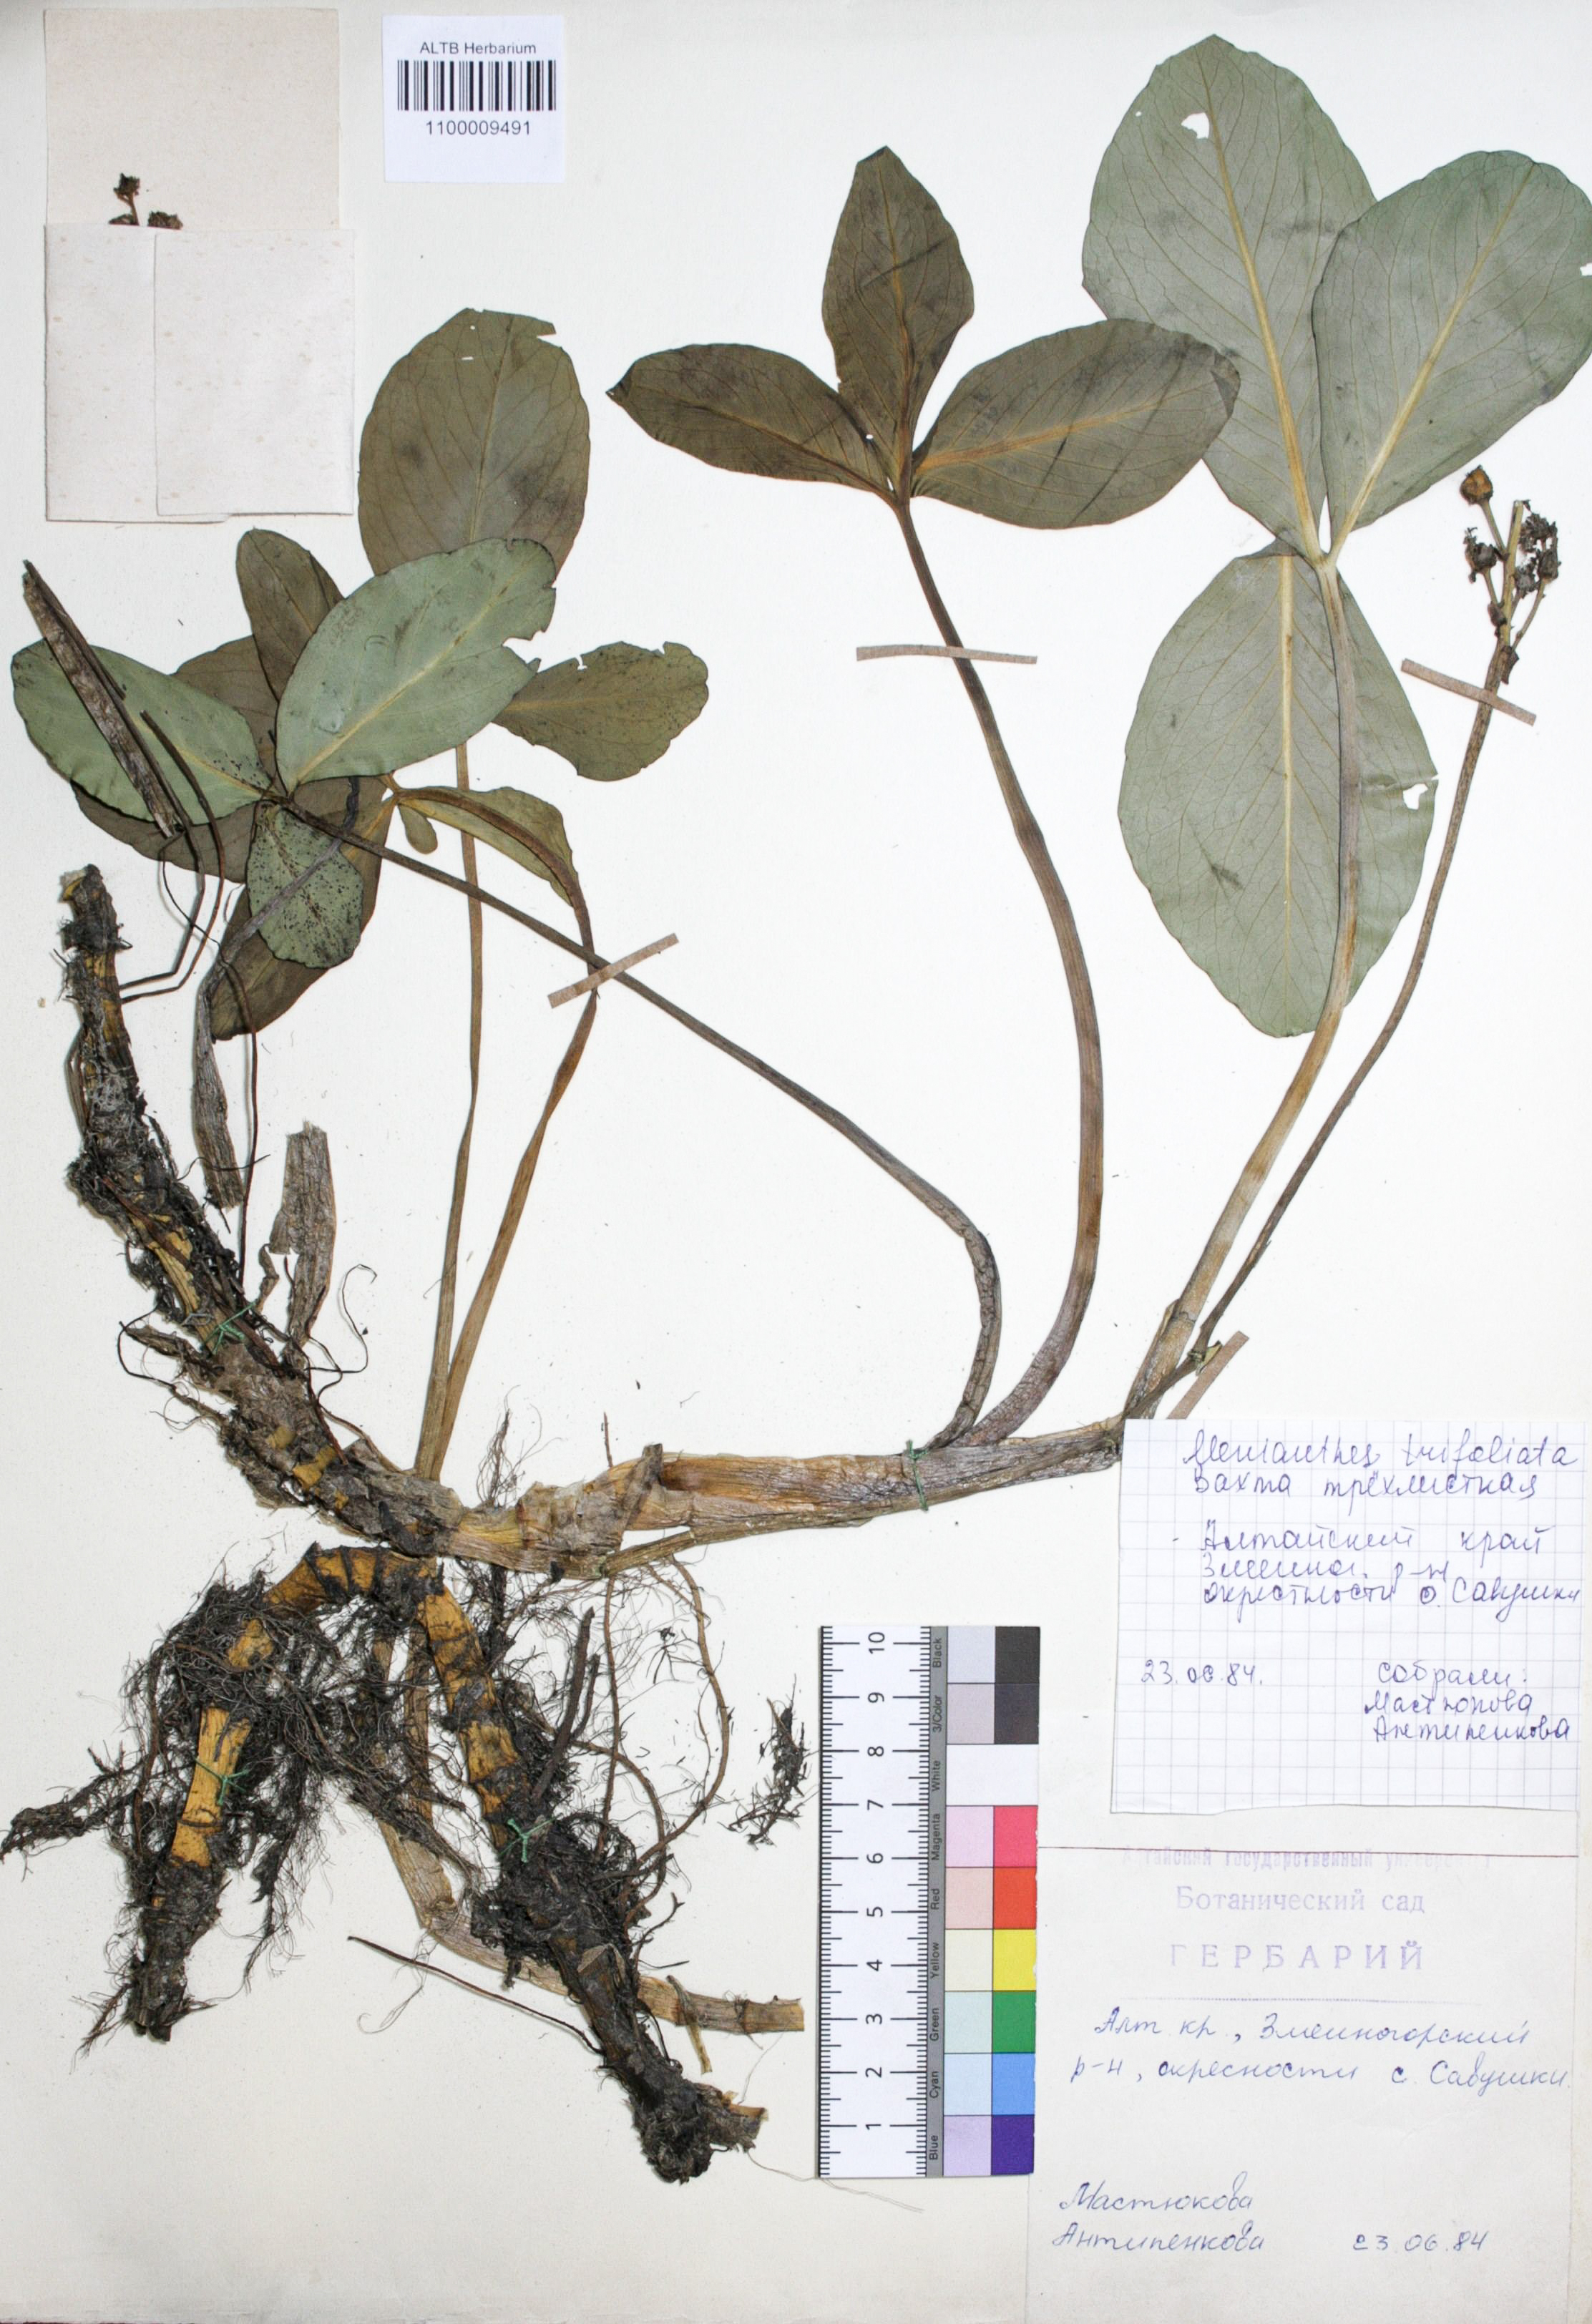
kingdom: Plantae
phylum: Tracheophyta
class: Magnoliopsida
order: Asterales
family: Menyanthaceae
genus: Menyanthes
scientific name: Menyanthes trifoliata
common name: Bogbean
